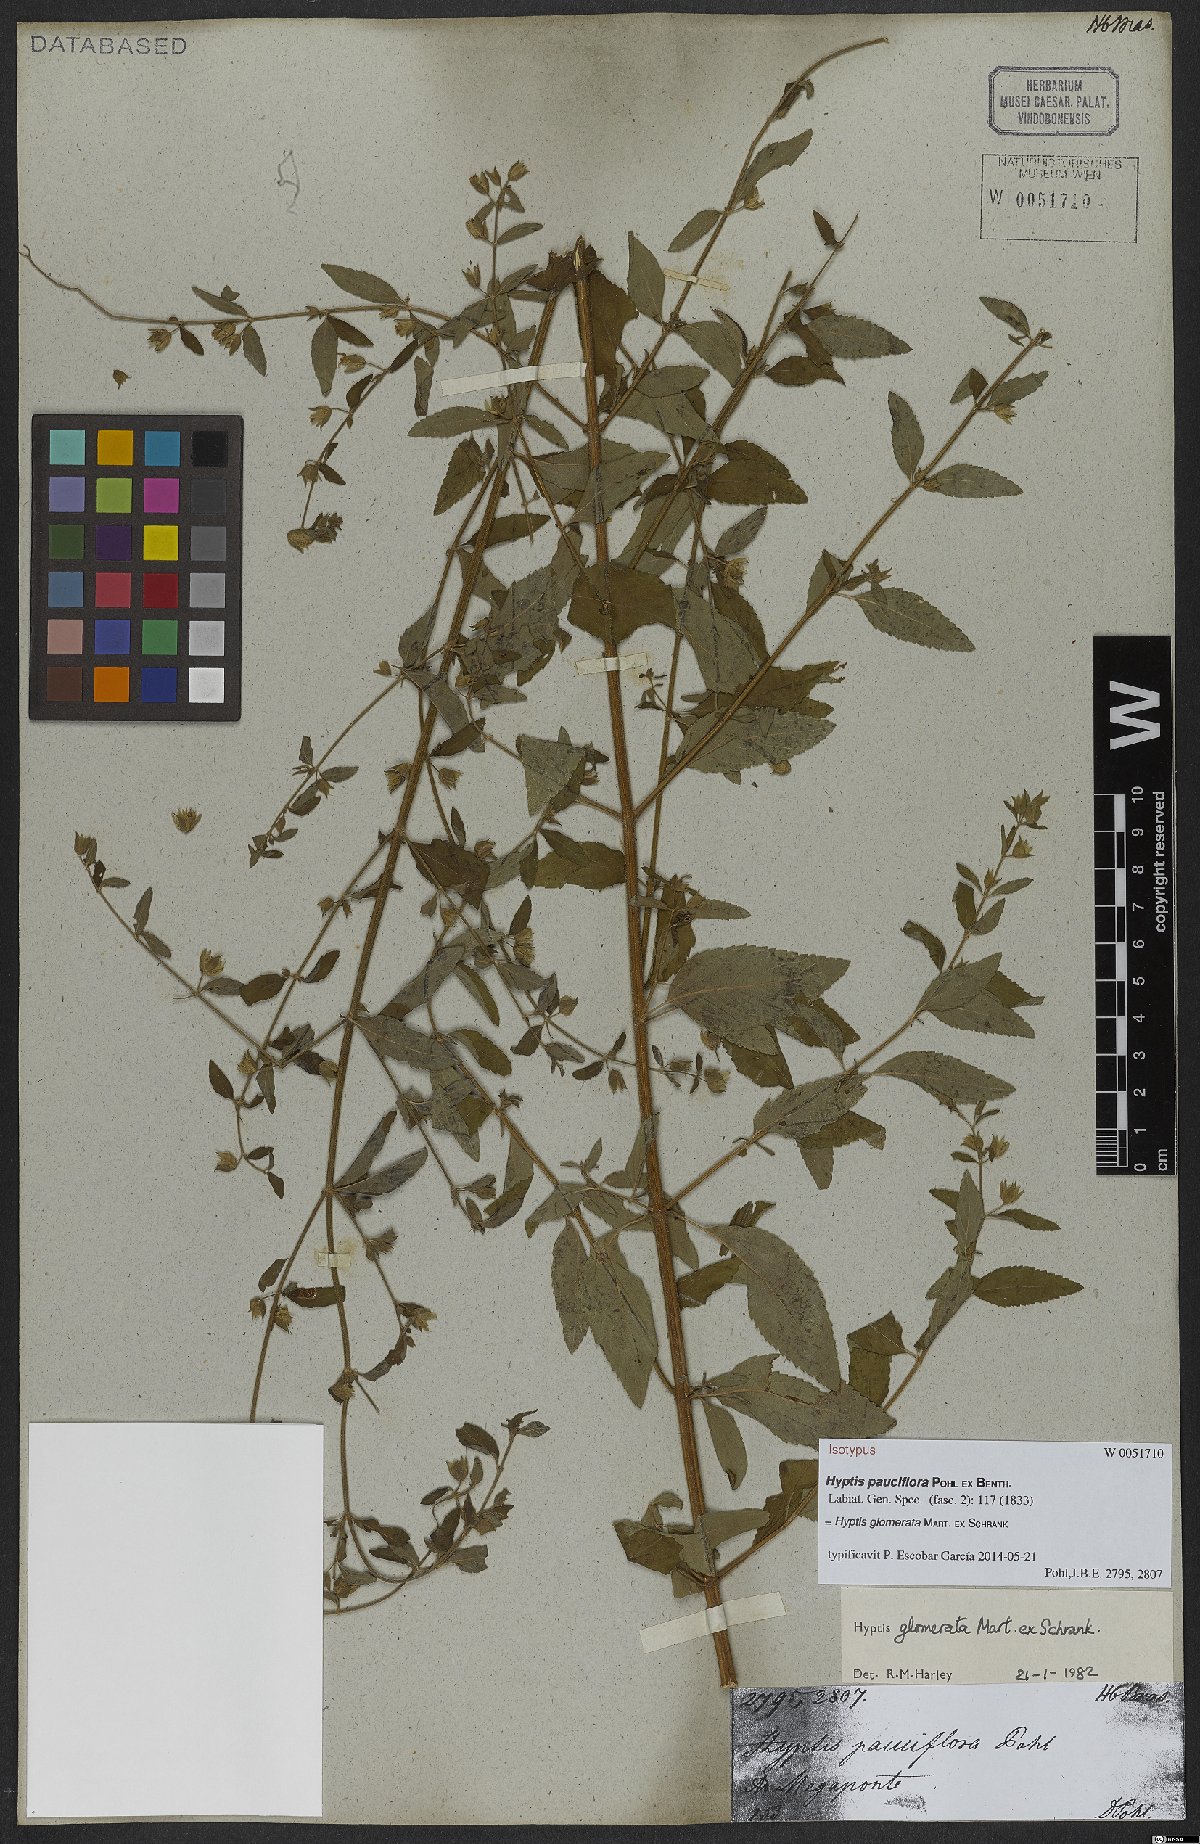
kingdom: Plantae
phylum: Tracheophyta
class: Magnoliopsida
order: Lamiales
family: Lamiaceae
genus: Oocephalus
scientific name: Oocephalus oppositiflorus
